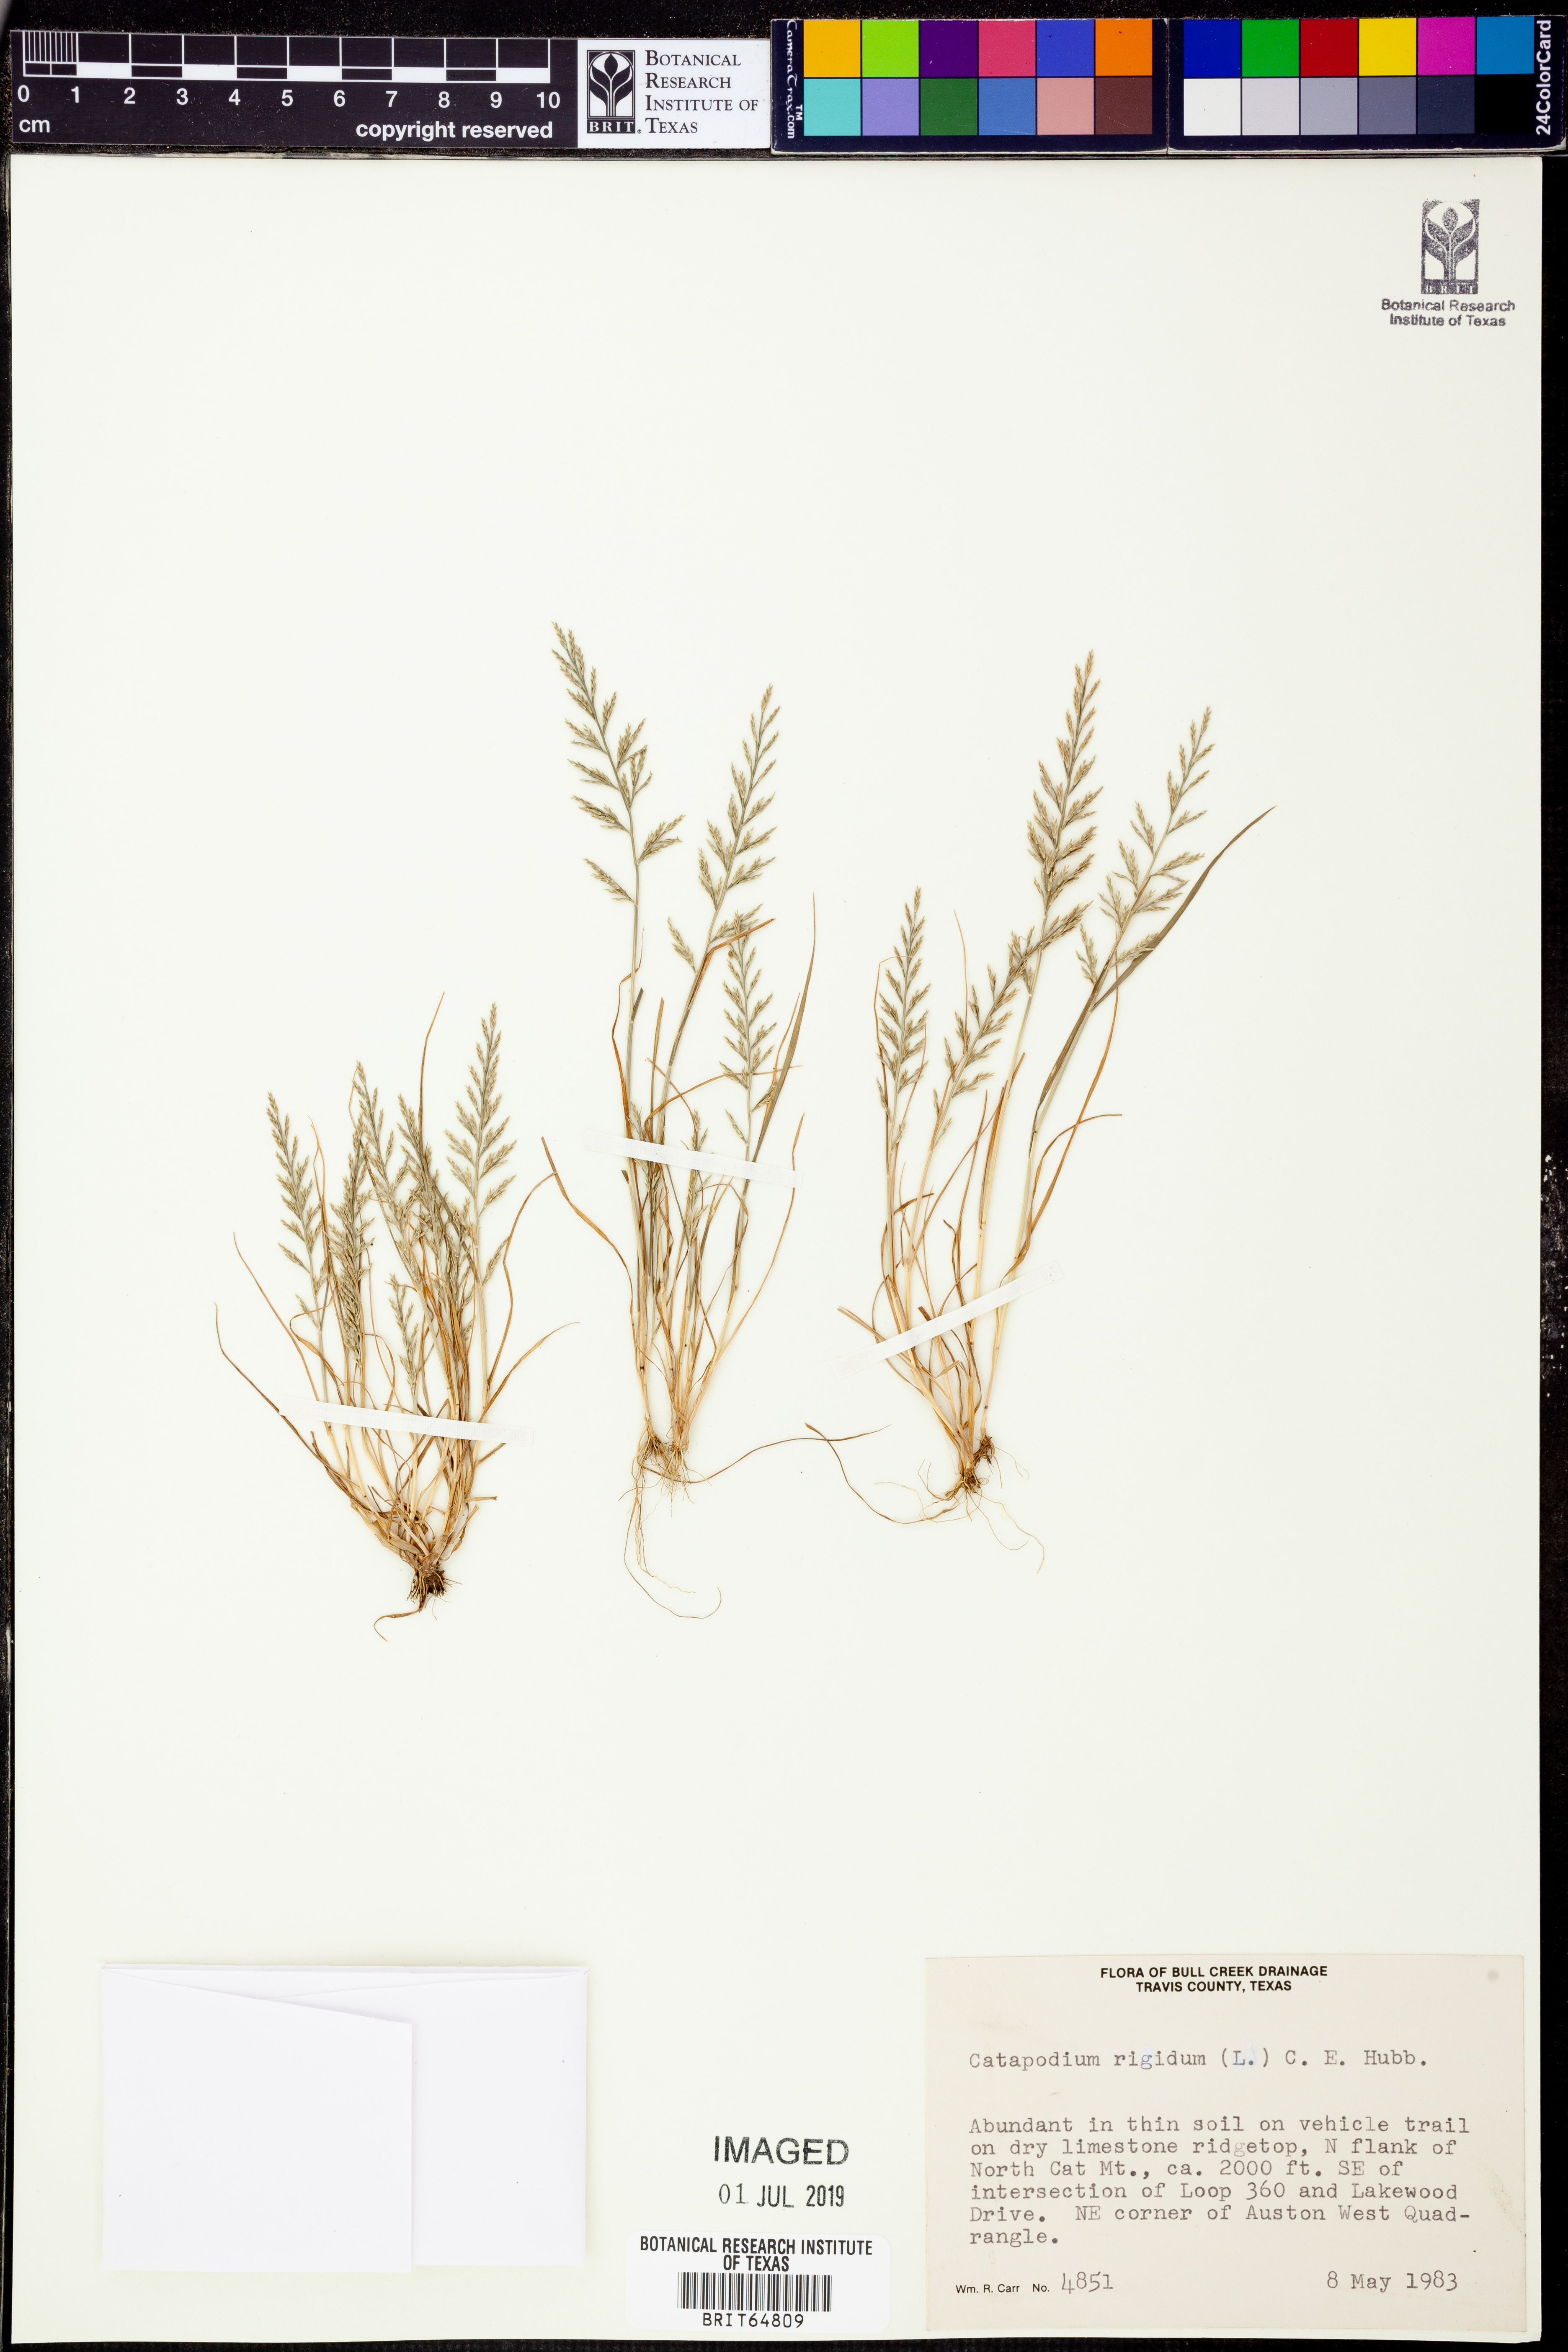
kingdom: Plantae
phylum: Tracheophyta
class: Liliopsida
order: Poales
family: Poaceae
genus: Catapodium
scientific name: Catapodium rigidum
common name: Fern-grass
